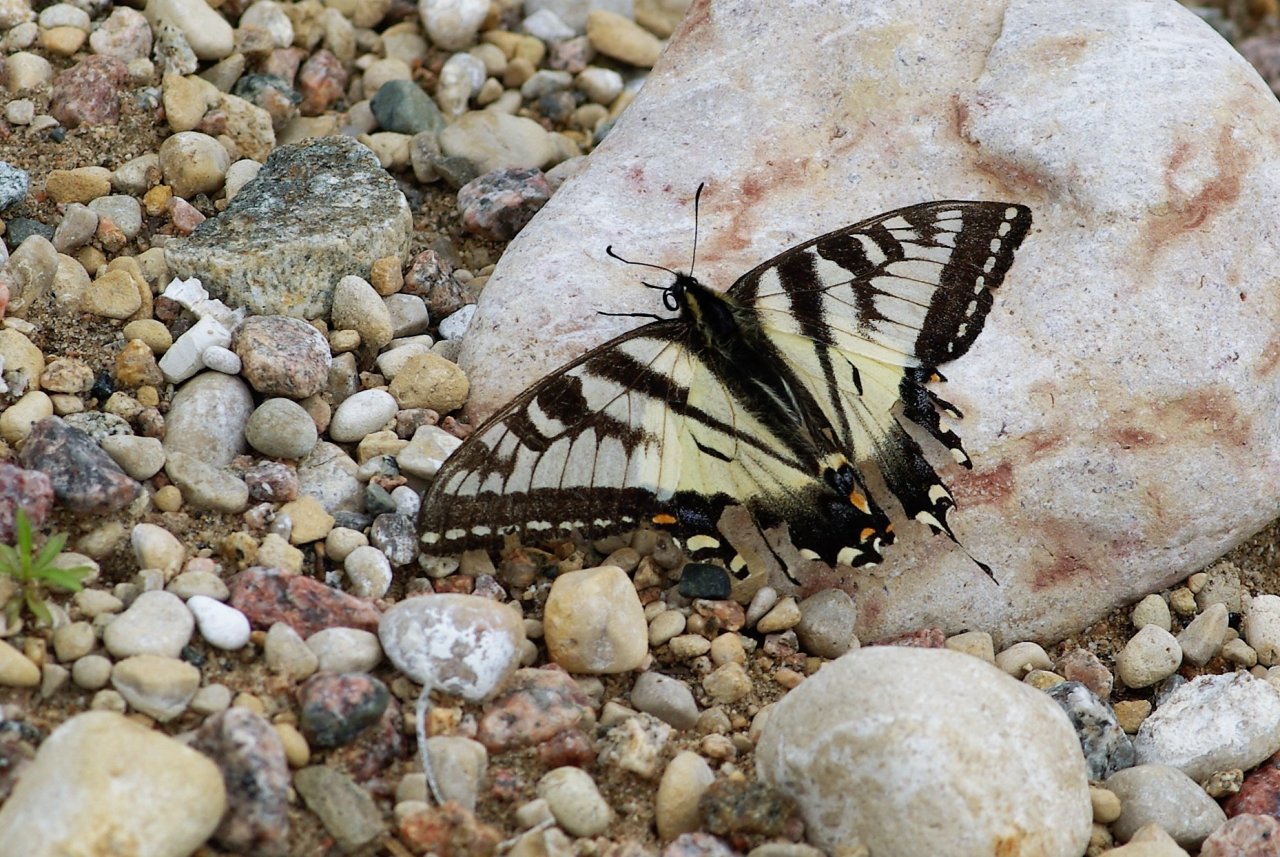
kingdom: Animalia
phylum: Arthropoda
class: Insecta
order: Lepidoptera
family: Papilionidae
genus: Pterourus
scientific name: Pterourus canadensis
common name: Canadian Tiger Swallowtail
